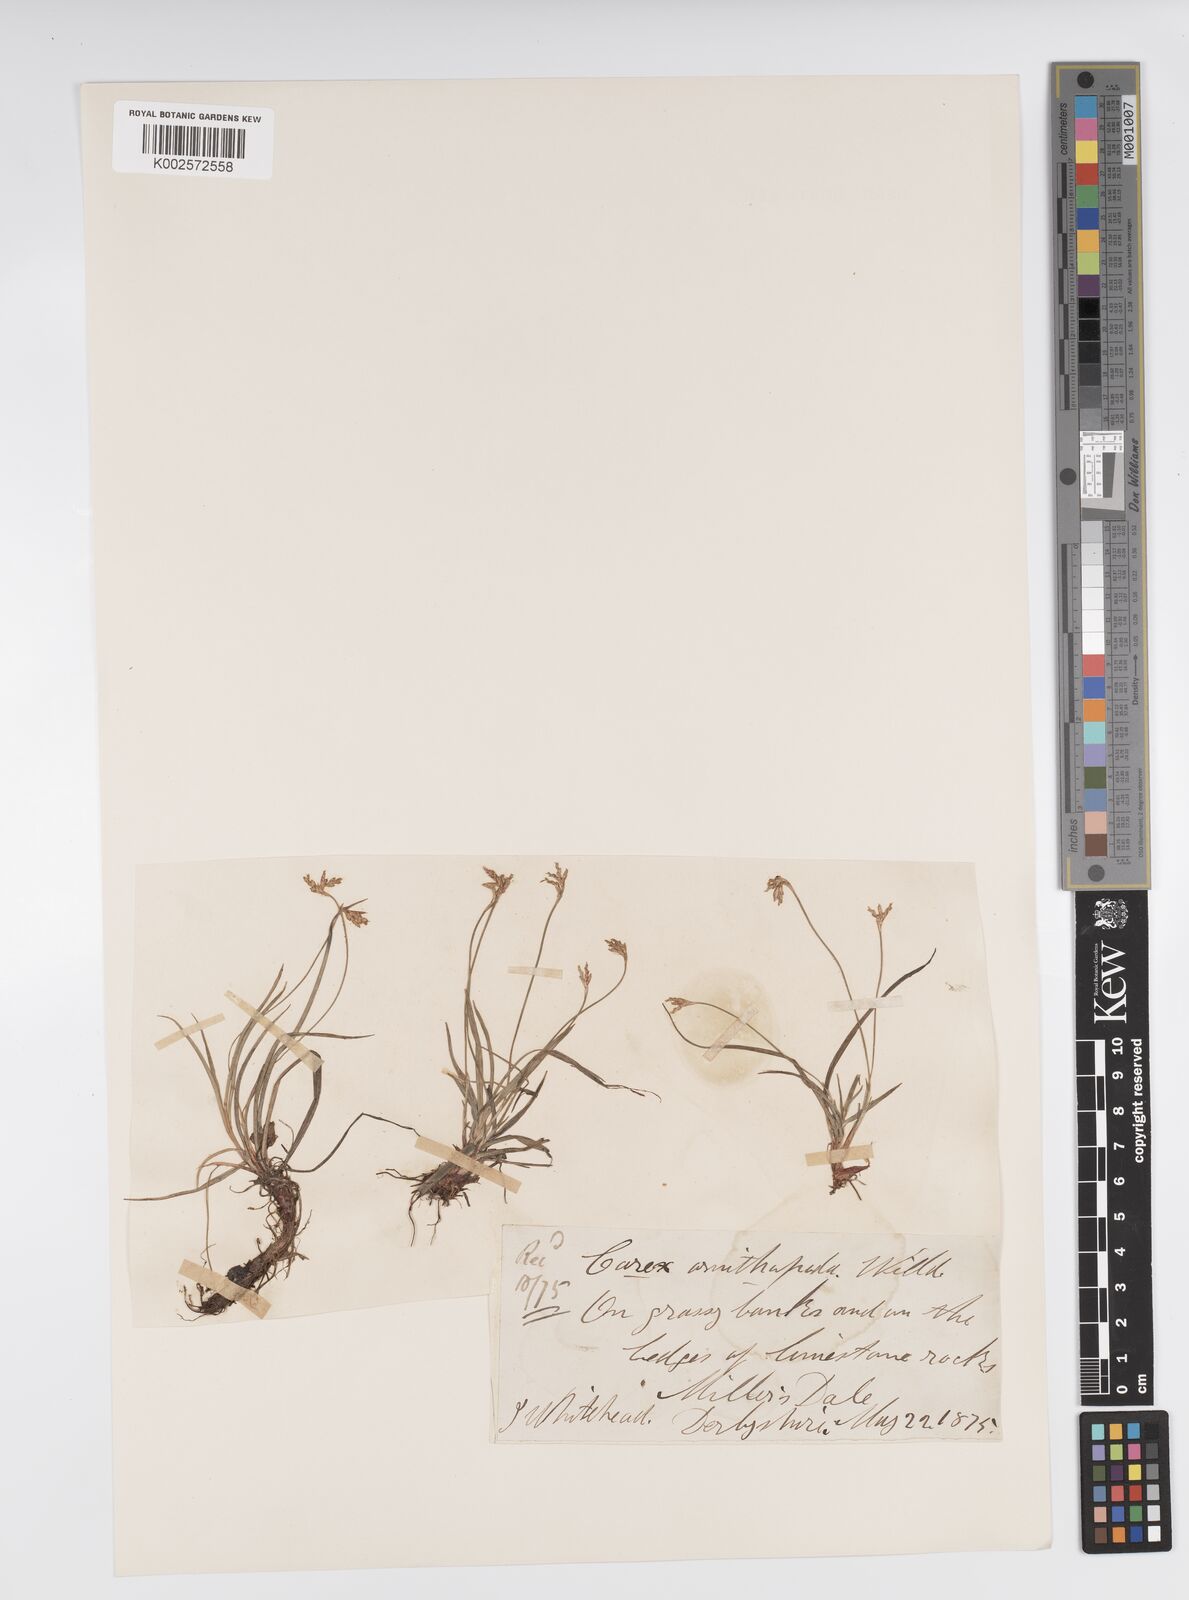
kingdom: Plantae
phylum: Tracheophyta
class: Liliopsida
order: Poales
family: Cyperaceae
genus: Carex
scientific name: Carex ornithopoda
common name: Bird's-foot sedge
